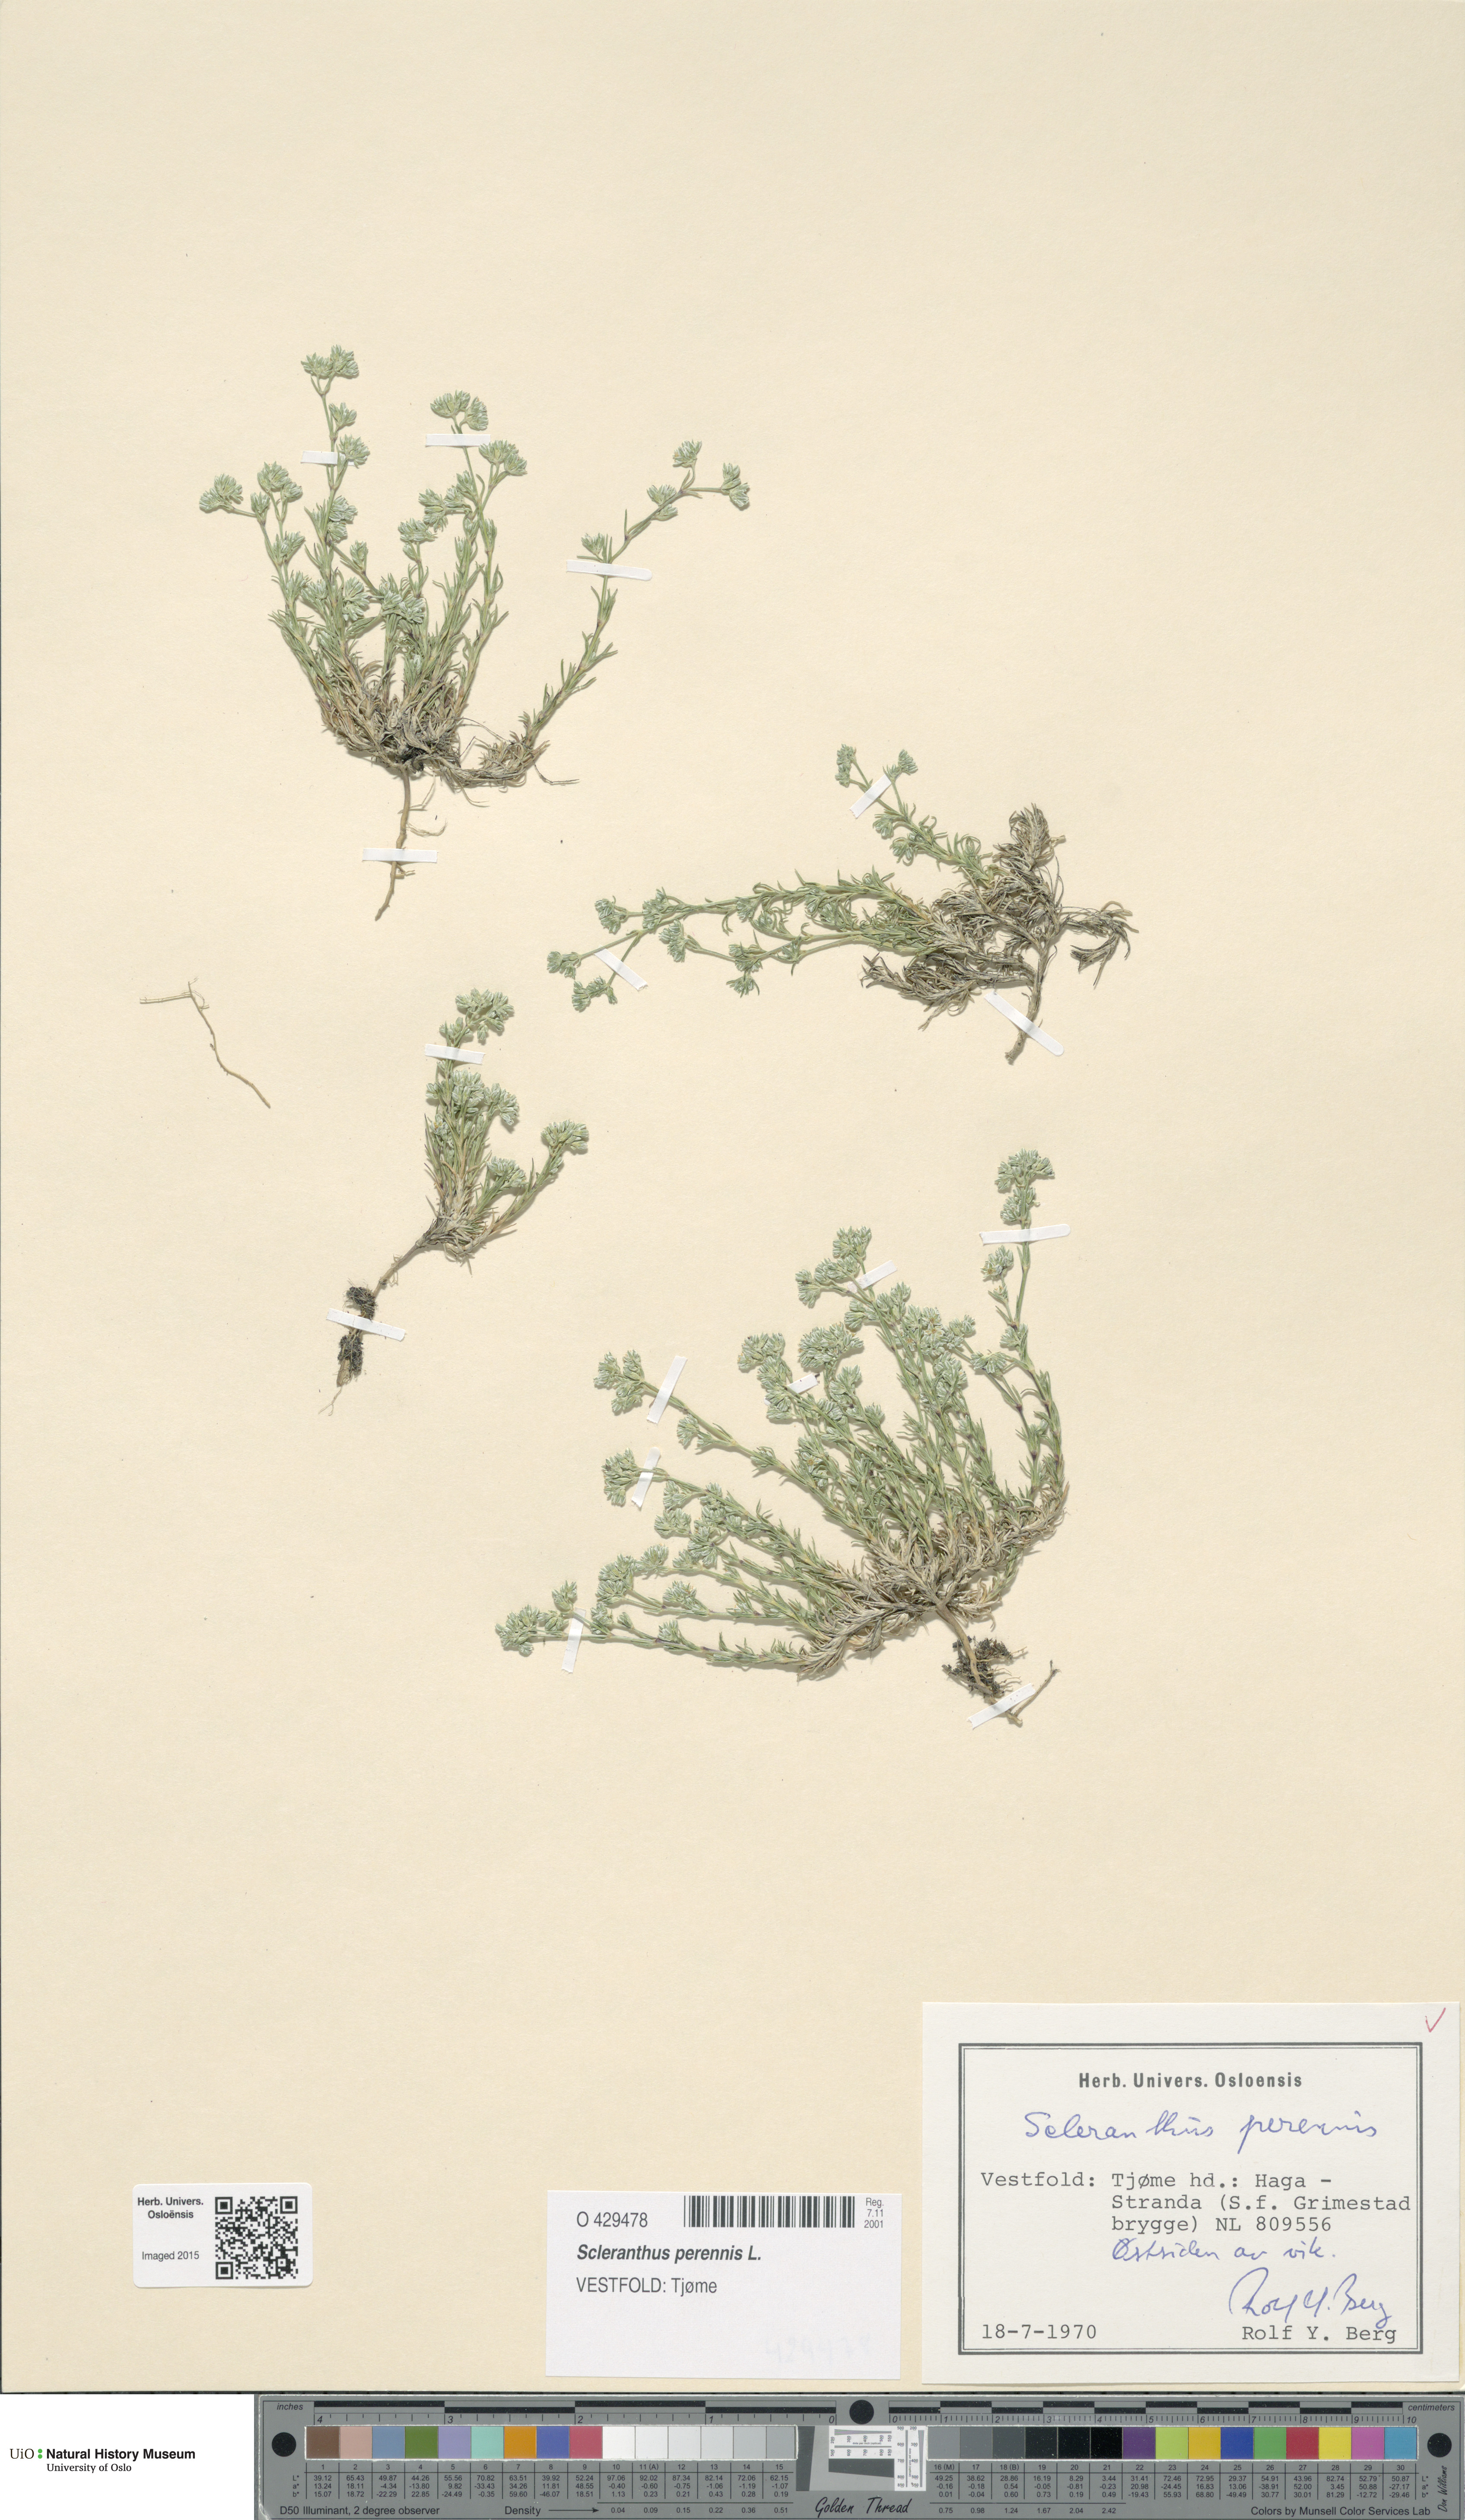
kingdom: Plantae
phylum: Tracheophyta
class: Magnoliopsida
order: Caryophyllales
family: Caryophyllaceae
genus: Scleranthus
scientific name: Scleranthus perennis
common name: Perennial knawel
